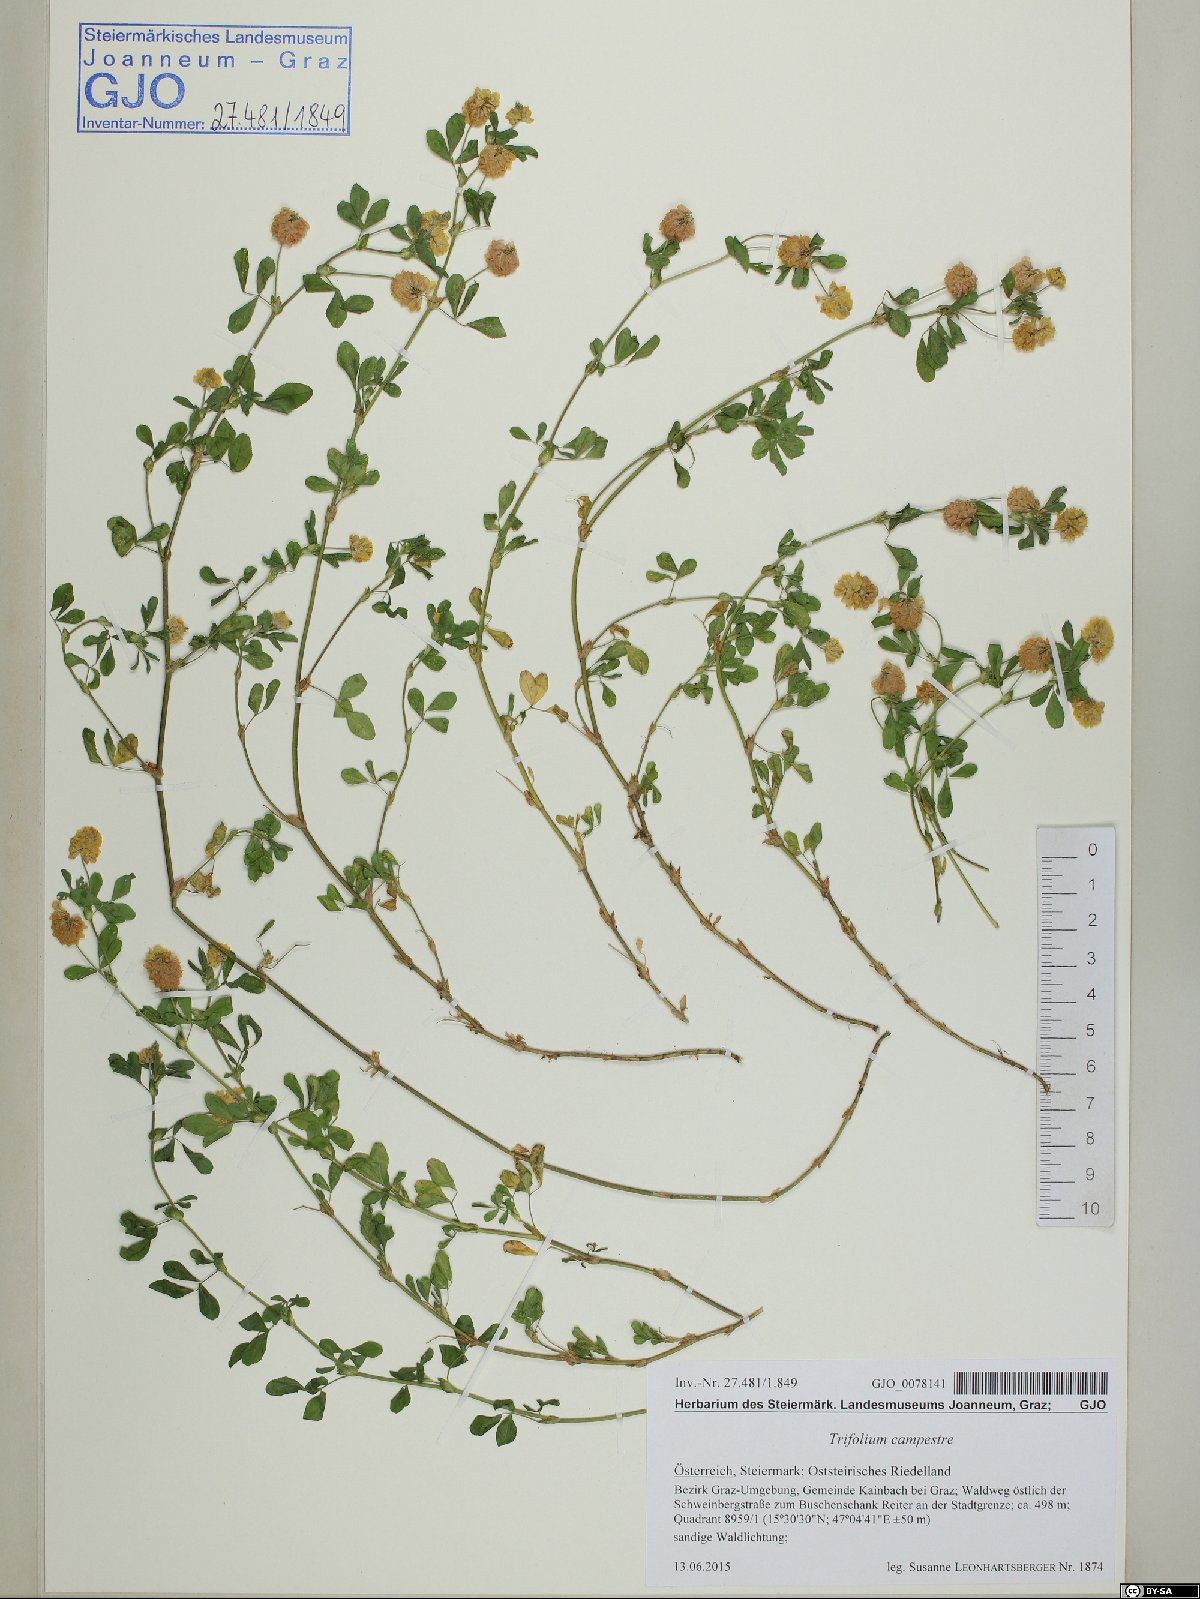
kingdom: Plantae
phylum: Tracheophyta
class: Magnoliopsida
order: Fabales
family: Fabaceae
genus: Trifolium
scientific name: Trifolium campestre
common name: Field clover
